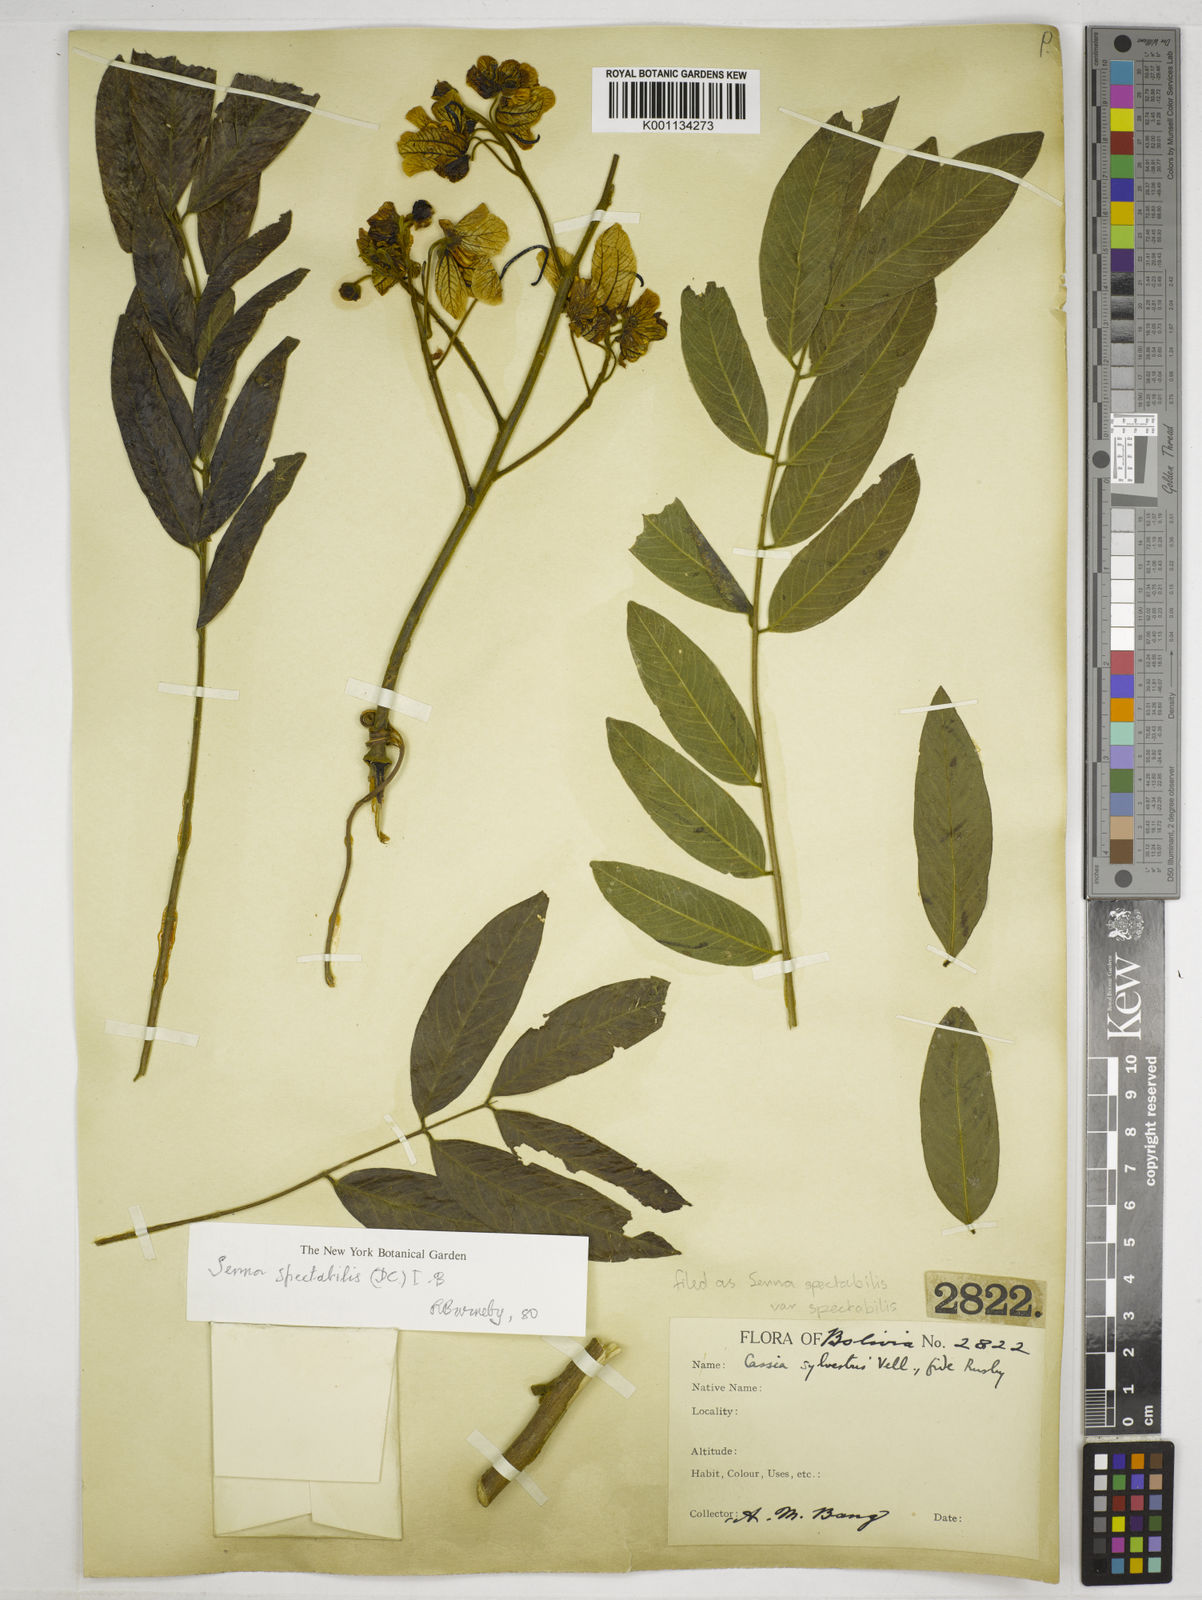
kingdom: Plantae
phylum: Tracheophyta
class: Magnoliopsida
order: Fabales
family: Fabaceae
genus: Senna
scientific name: Senna spectabilis
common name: Casia amarilla
